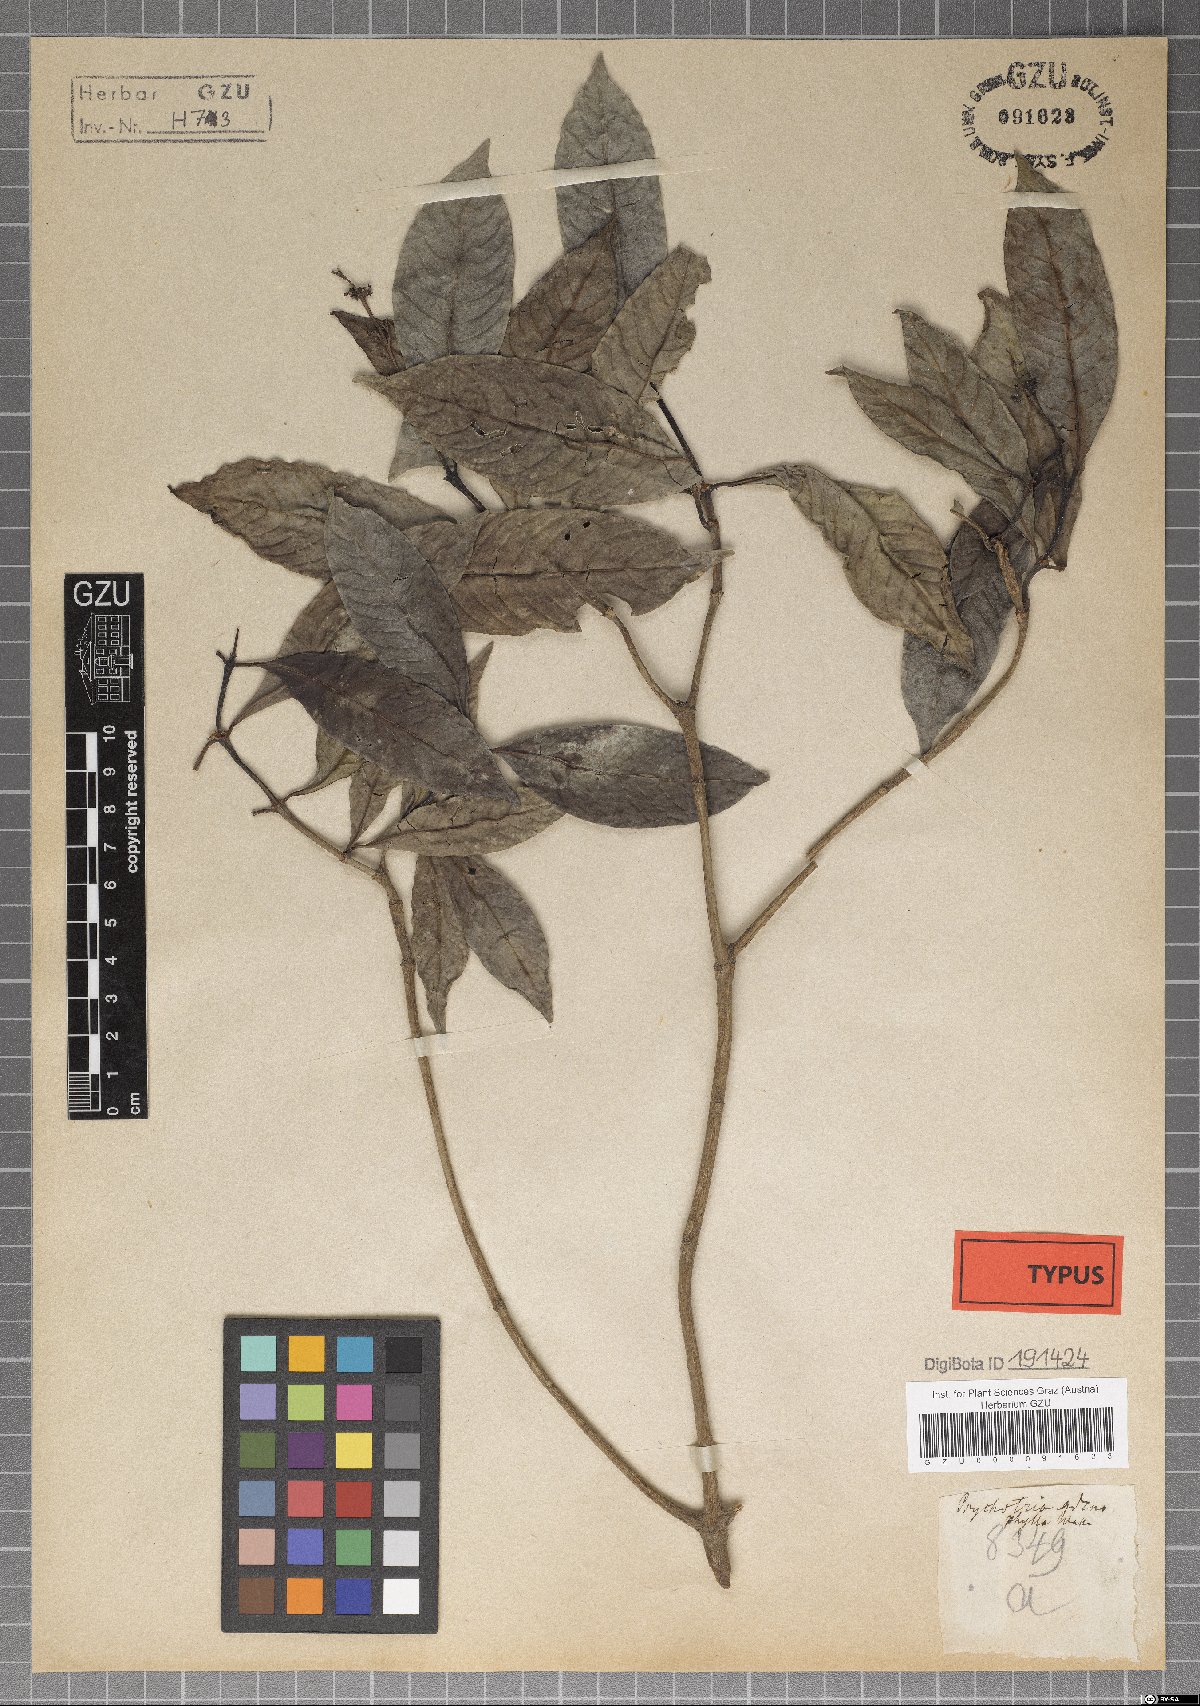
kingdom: Plantae
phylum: Tracheophyta
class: Magnoliopsida
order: Gentianales
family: Rubiaceae
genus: Psychotria
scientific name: Psychotria adenophylla
